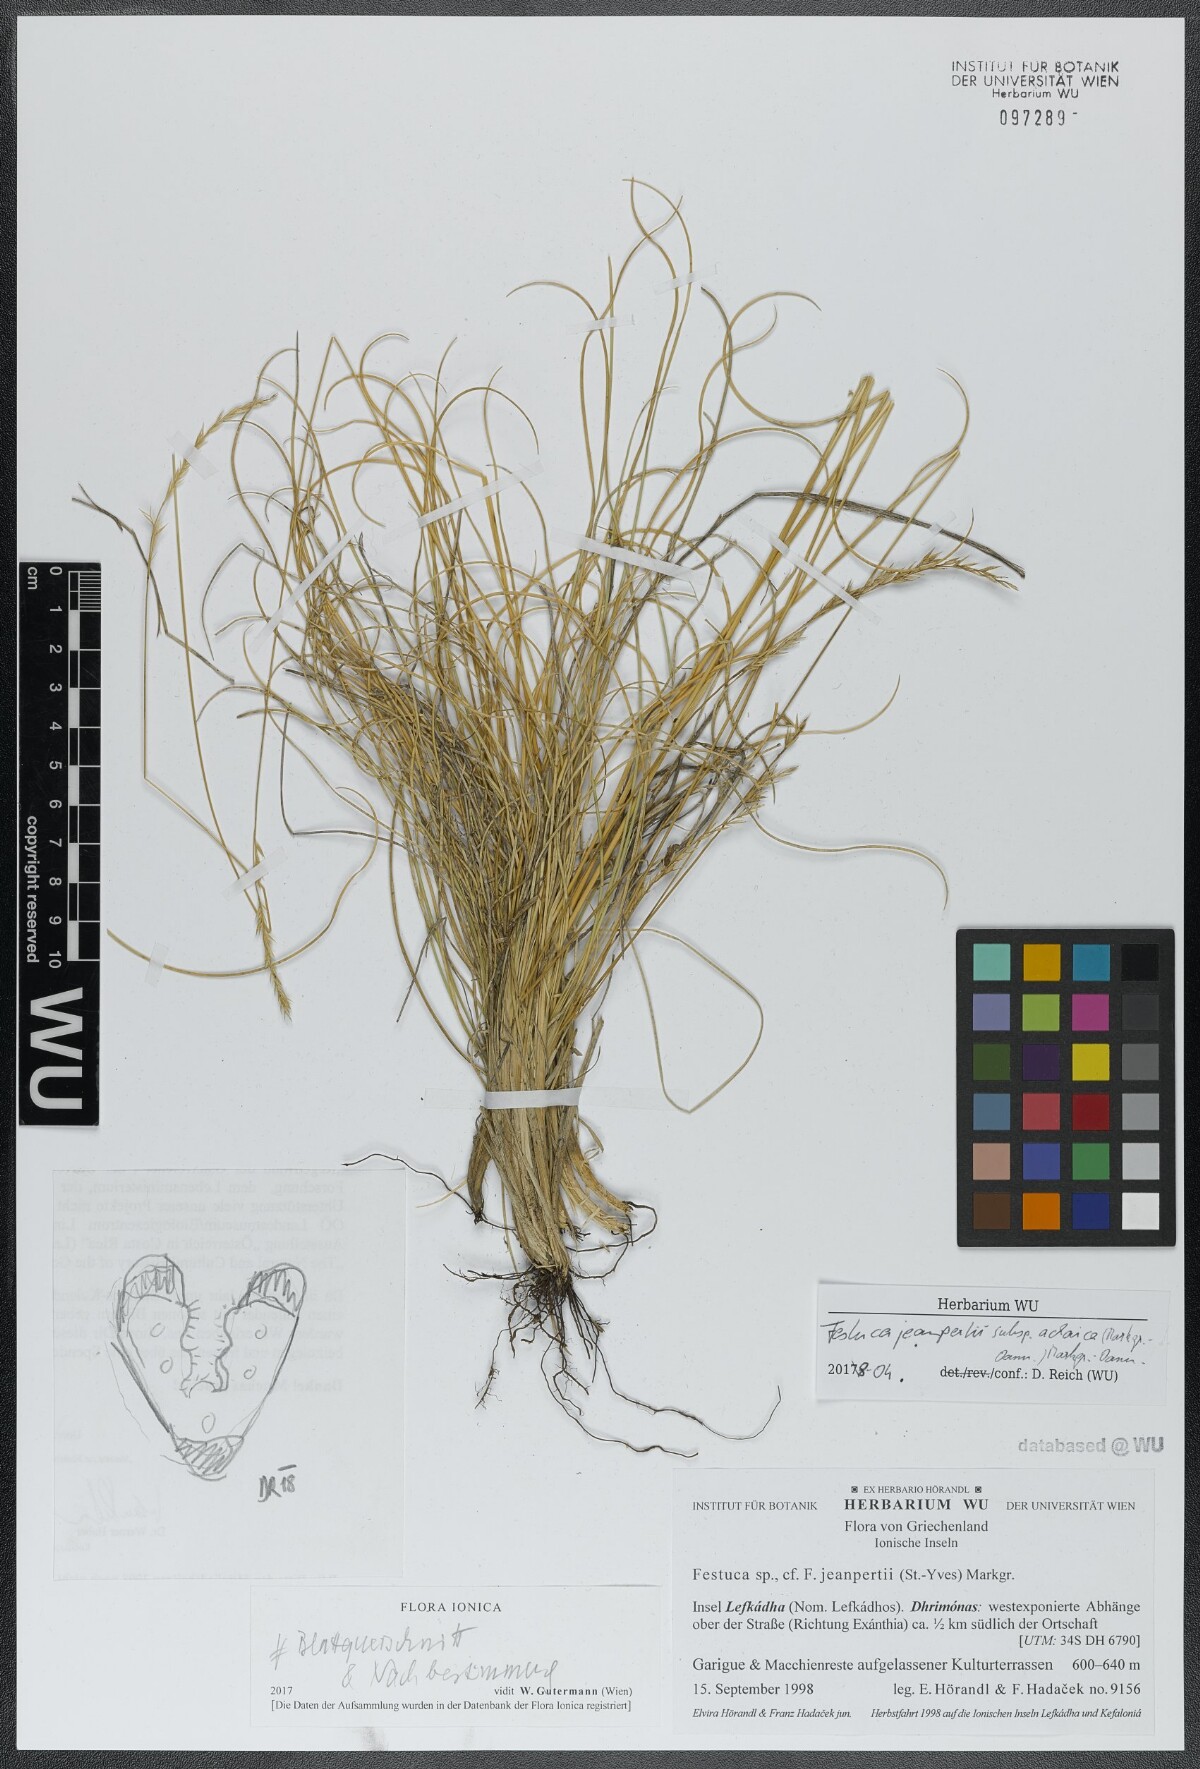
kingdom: Plantae
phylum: Tracheophyta
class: Liliopsida
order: Poales
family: Poaceae
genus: Festuca
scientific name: Festuca jeanpertii
